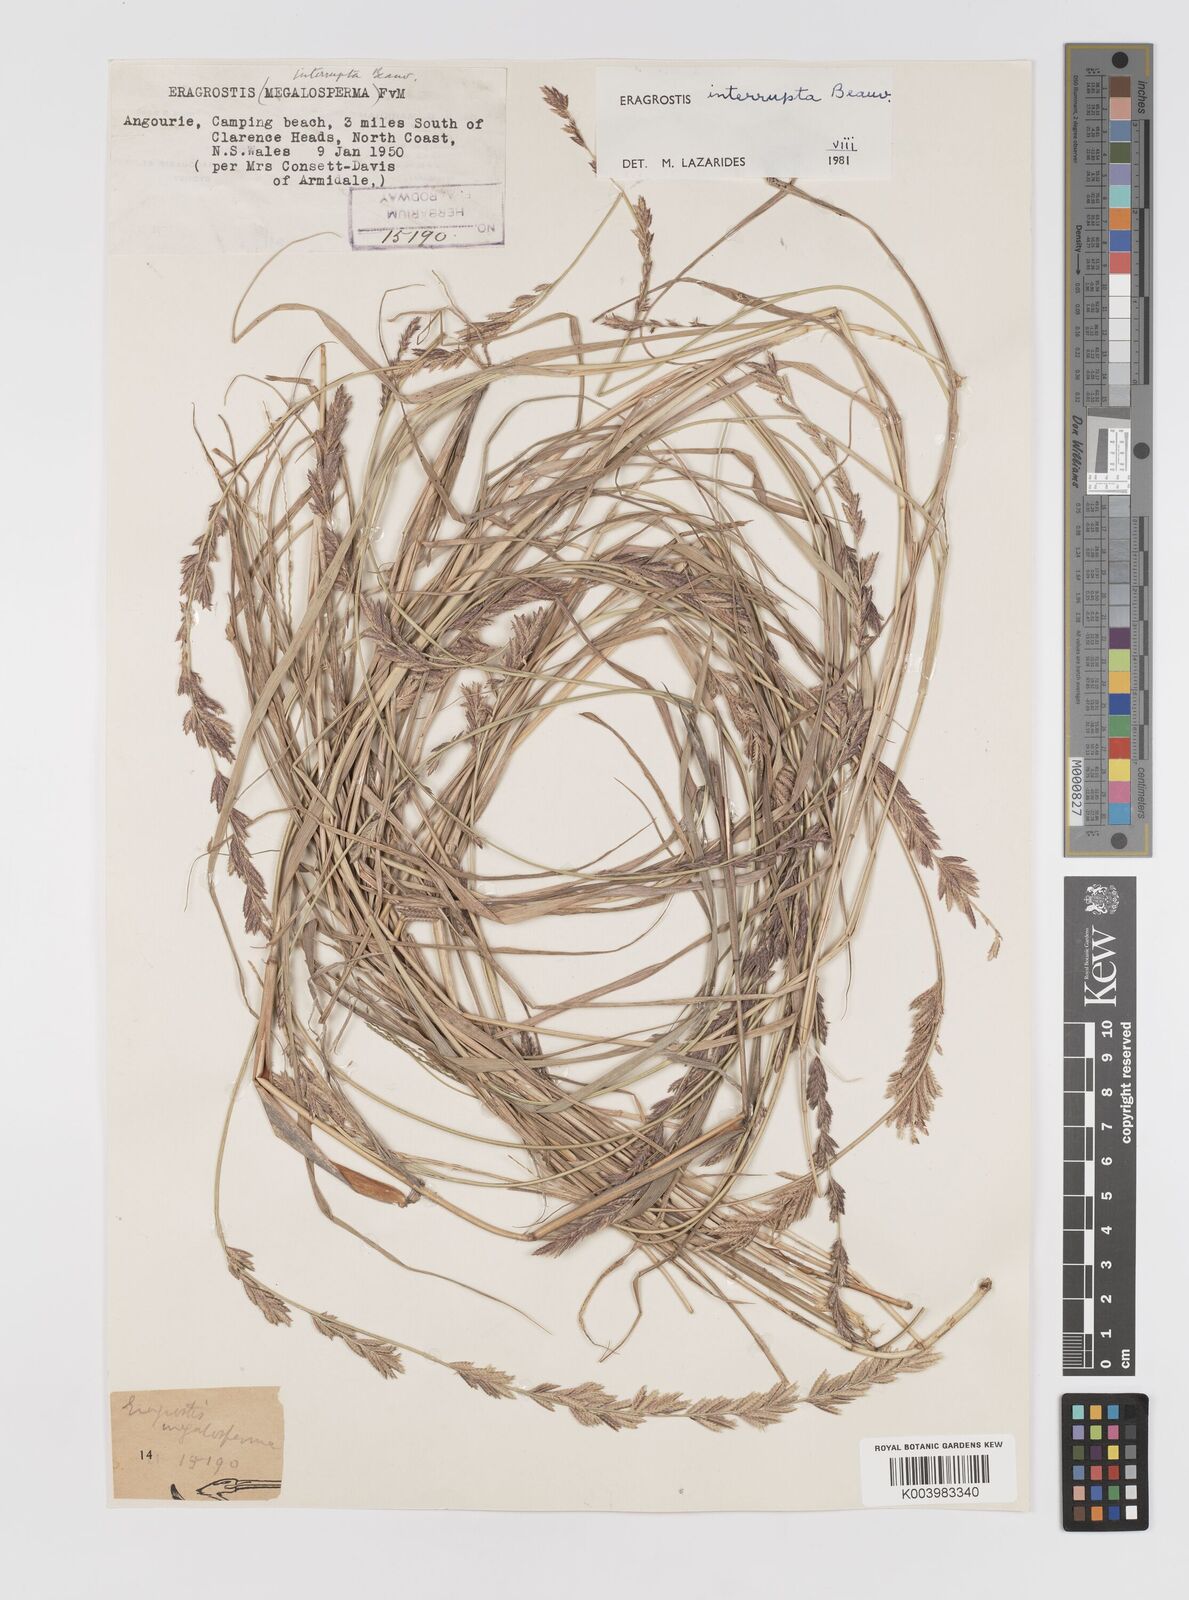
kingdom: Plantae
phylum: Tracheophyta
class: Liliopsida
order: Poales
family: Poaceae
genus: Eragrostis
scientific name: Eragrostis interrupta
